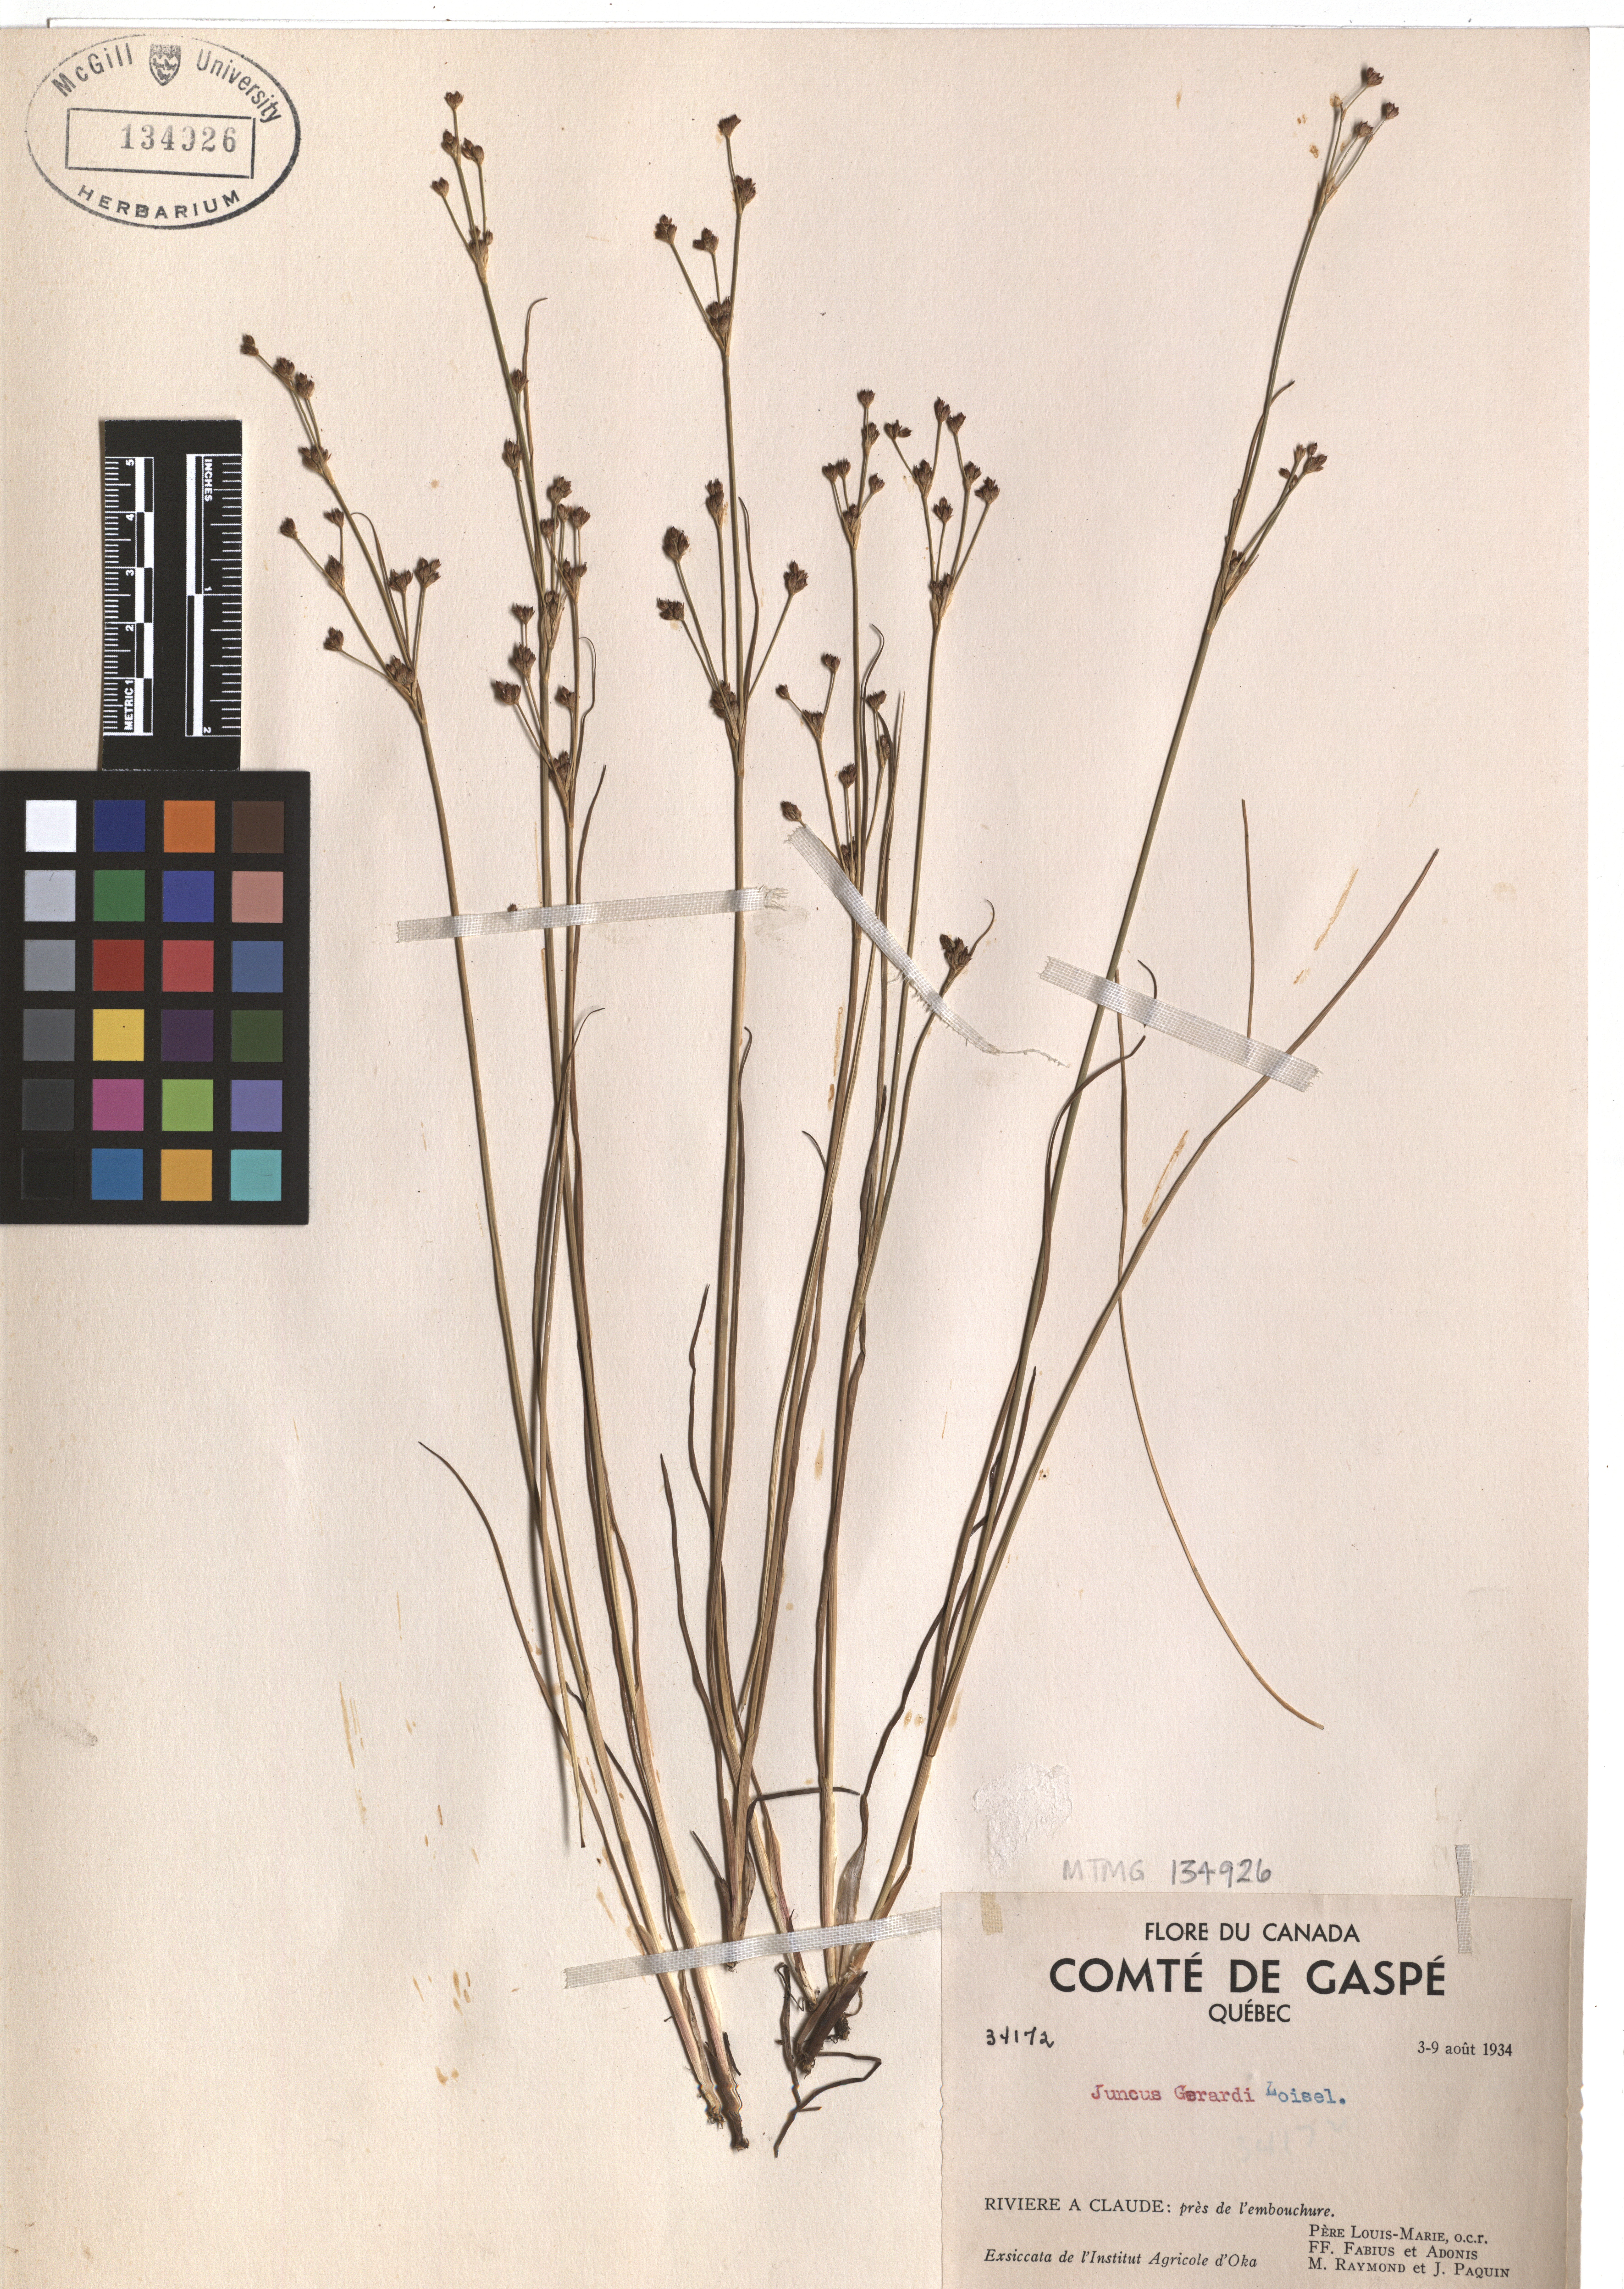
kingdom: Plantae
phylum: Tracheophyta
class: Liliopsida
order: Poales
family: Juncaceae
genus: Juncus
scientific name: Juncus gerardi
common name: Saltmarsh rush
